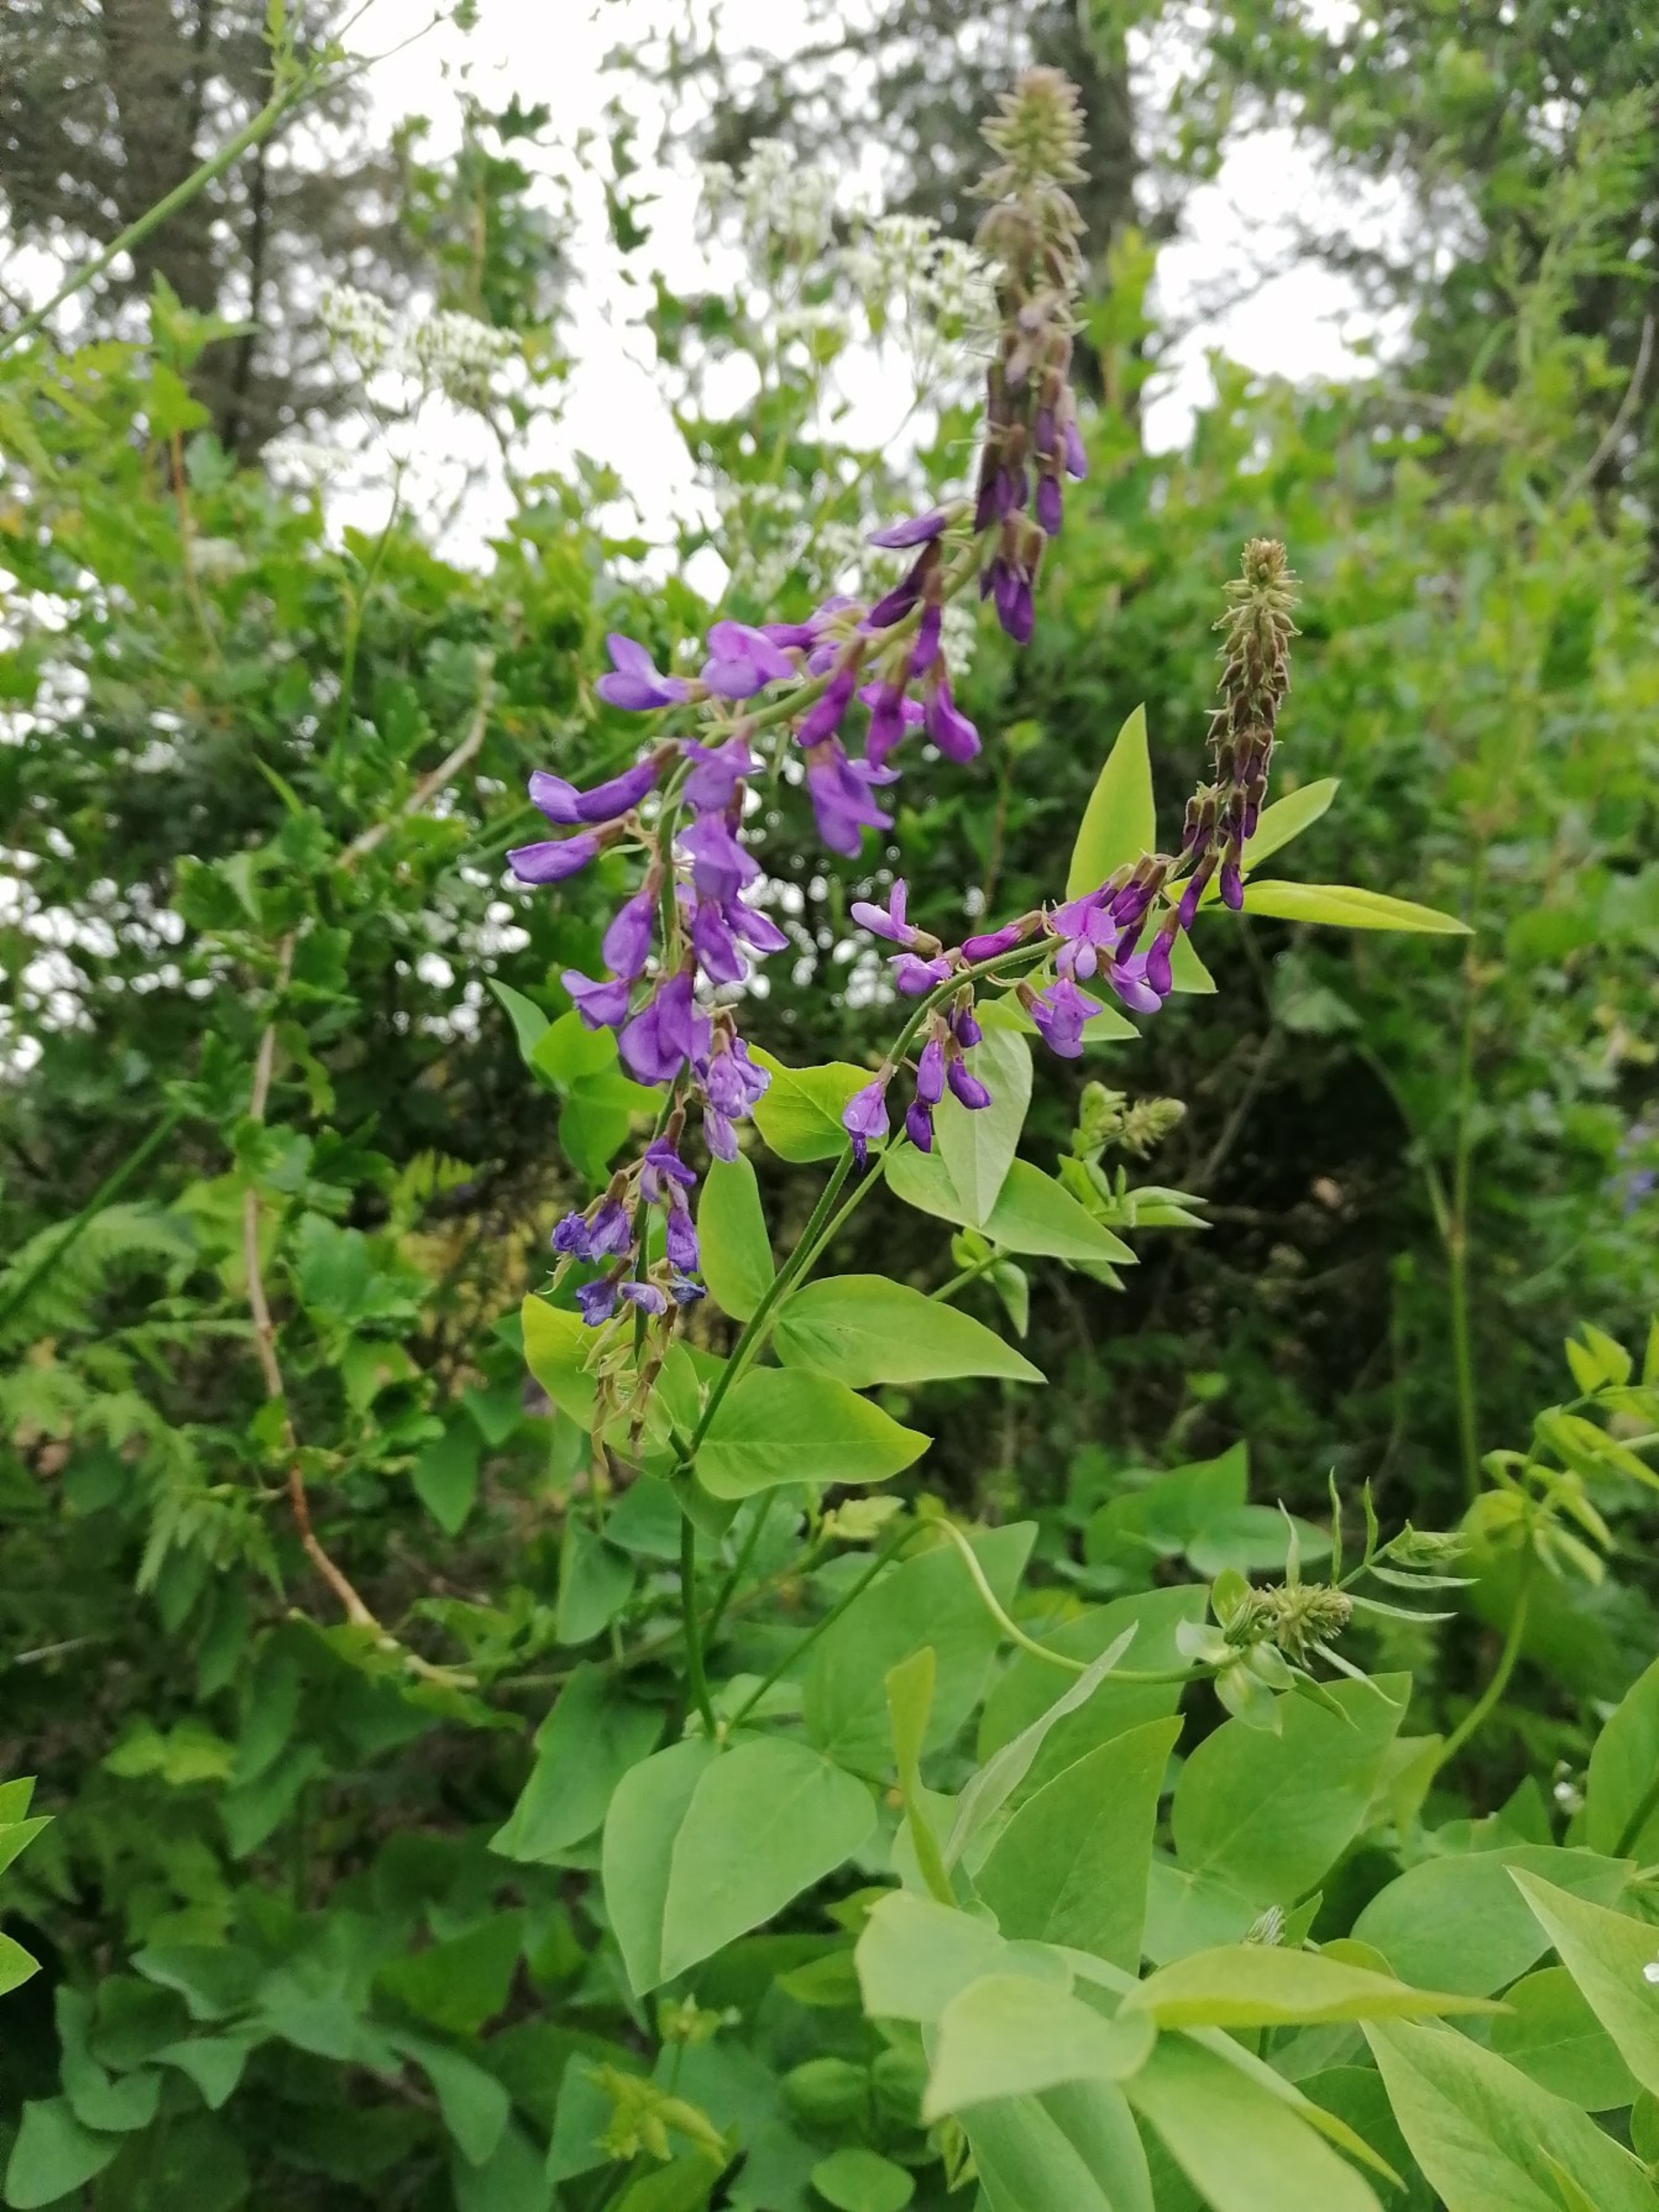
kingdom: Plantae
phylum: Tracheophyta
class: Magnoliopsida
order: Fabales
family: Fabaceae
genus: Galega
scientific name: Galega orientalis
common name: Blå stregbælg
